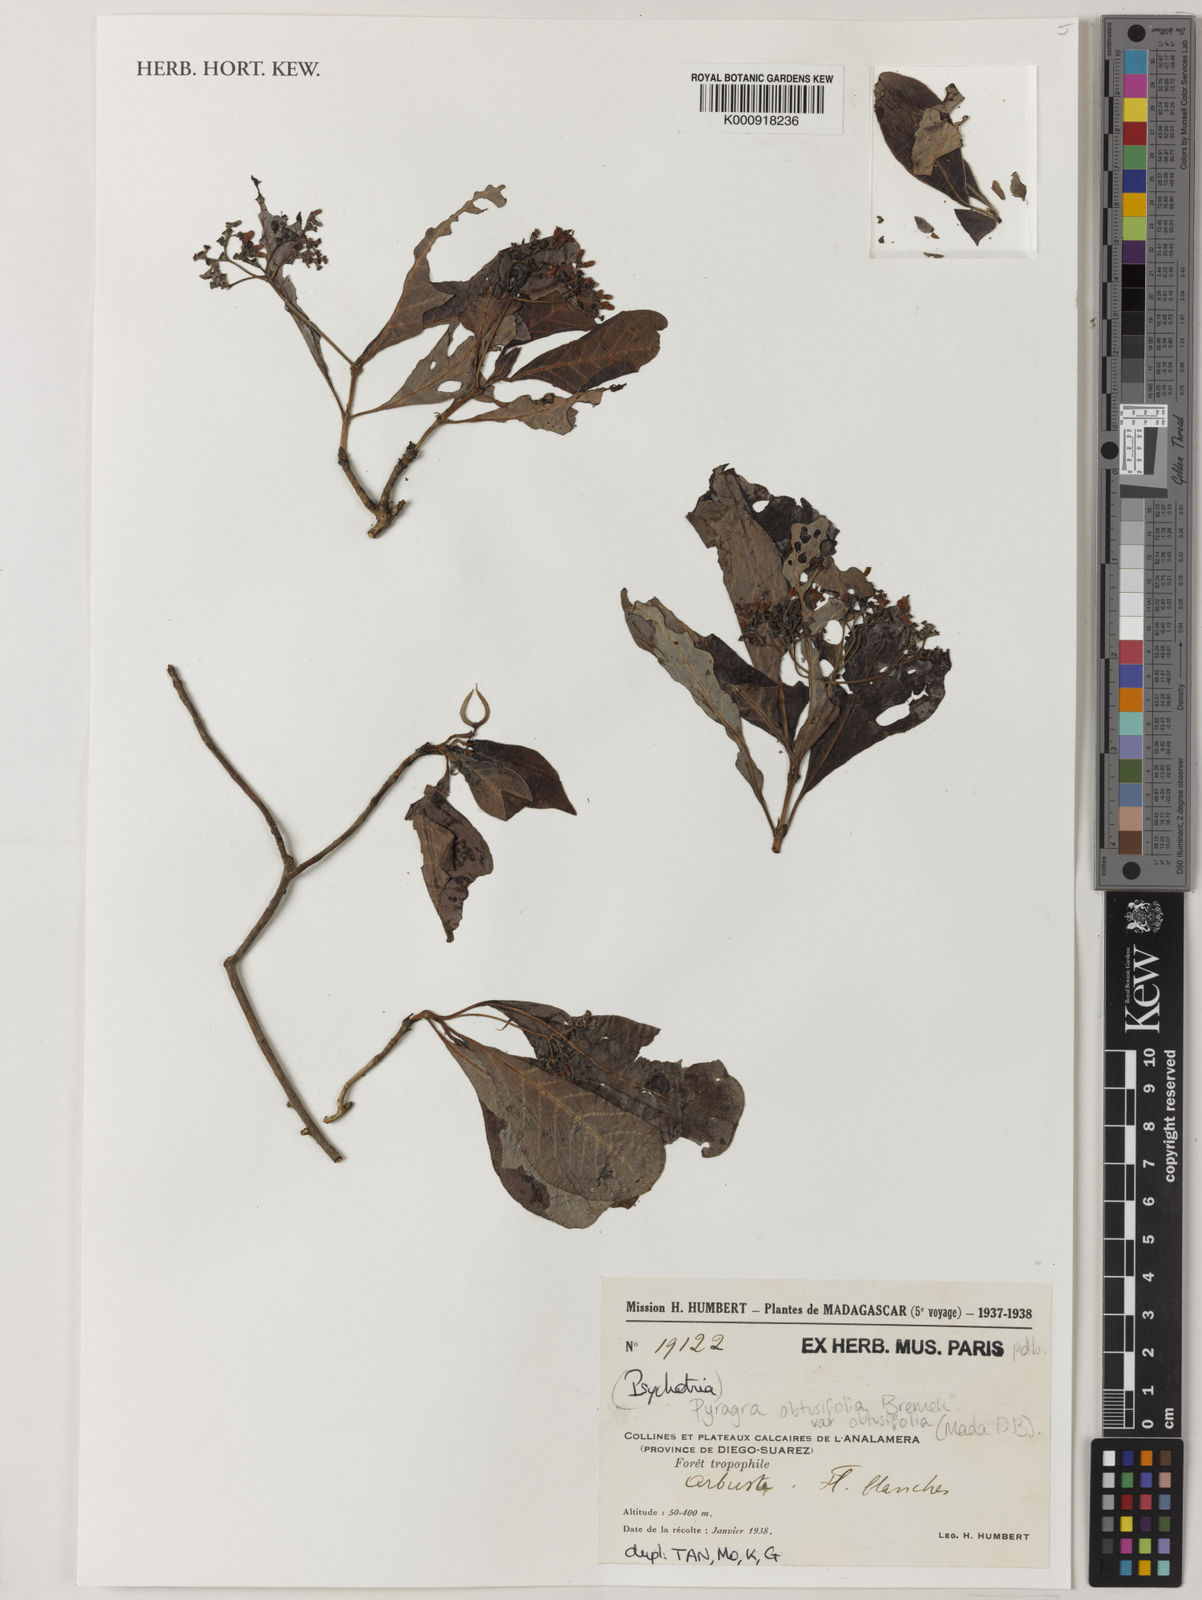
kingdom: Plantae
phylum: Tracheophyta
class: Magnoliopsida
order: Gentianales
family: Rubiaceae
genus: Psychotria
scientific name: Psychotria antakaranensis
